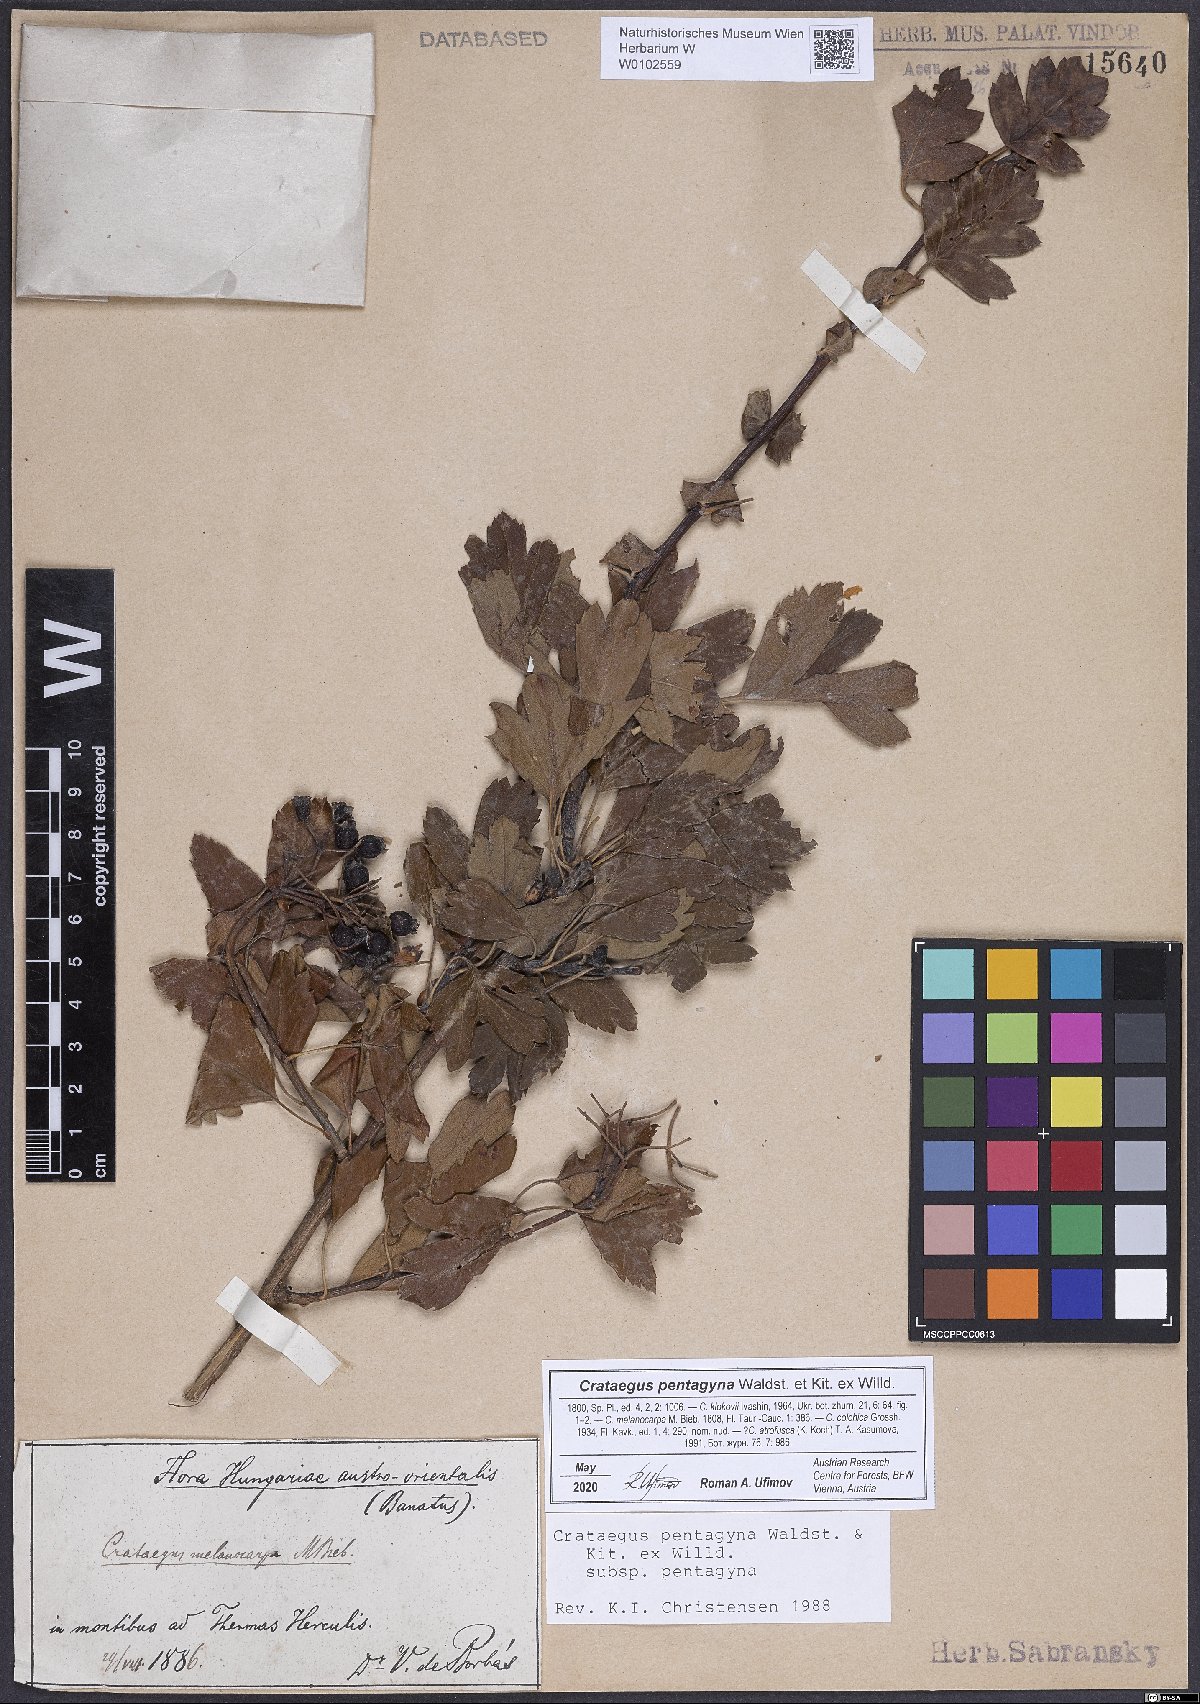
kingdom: Plantae
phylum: Tracheophyta
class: Magnoliopsida
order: Rosales
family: Rosaceae
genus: Crataegus
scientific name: Crataegus pentagyna
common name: Small-flowered black hawthorn
